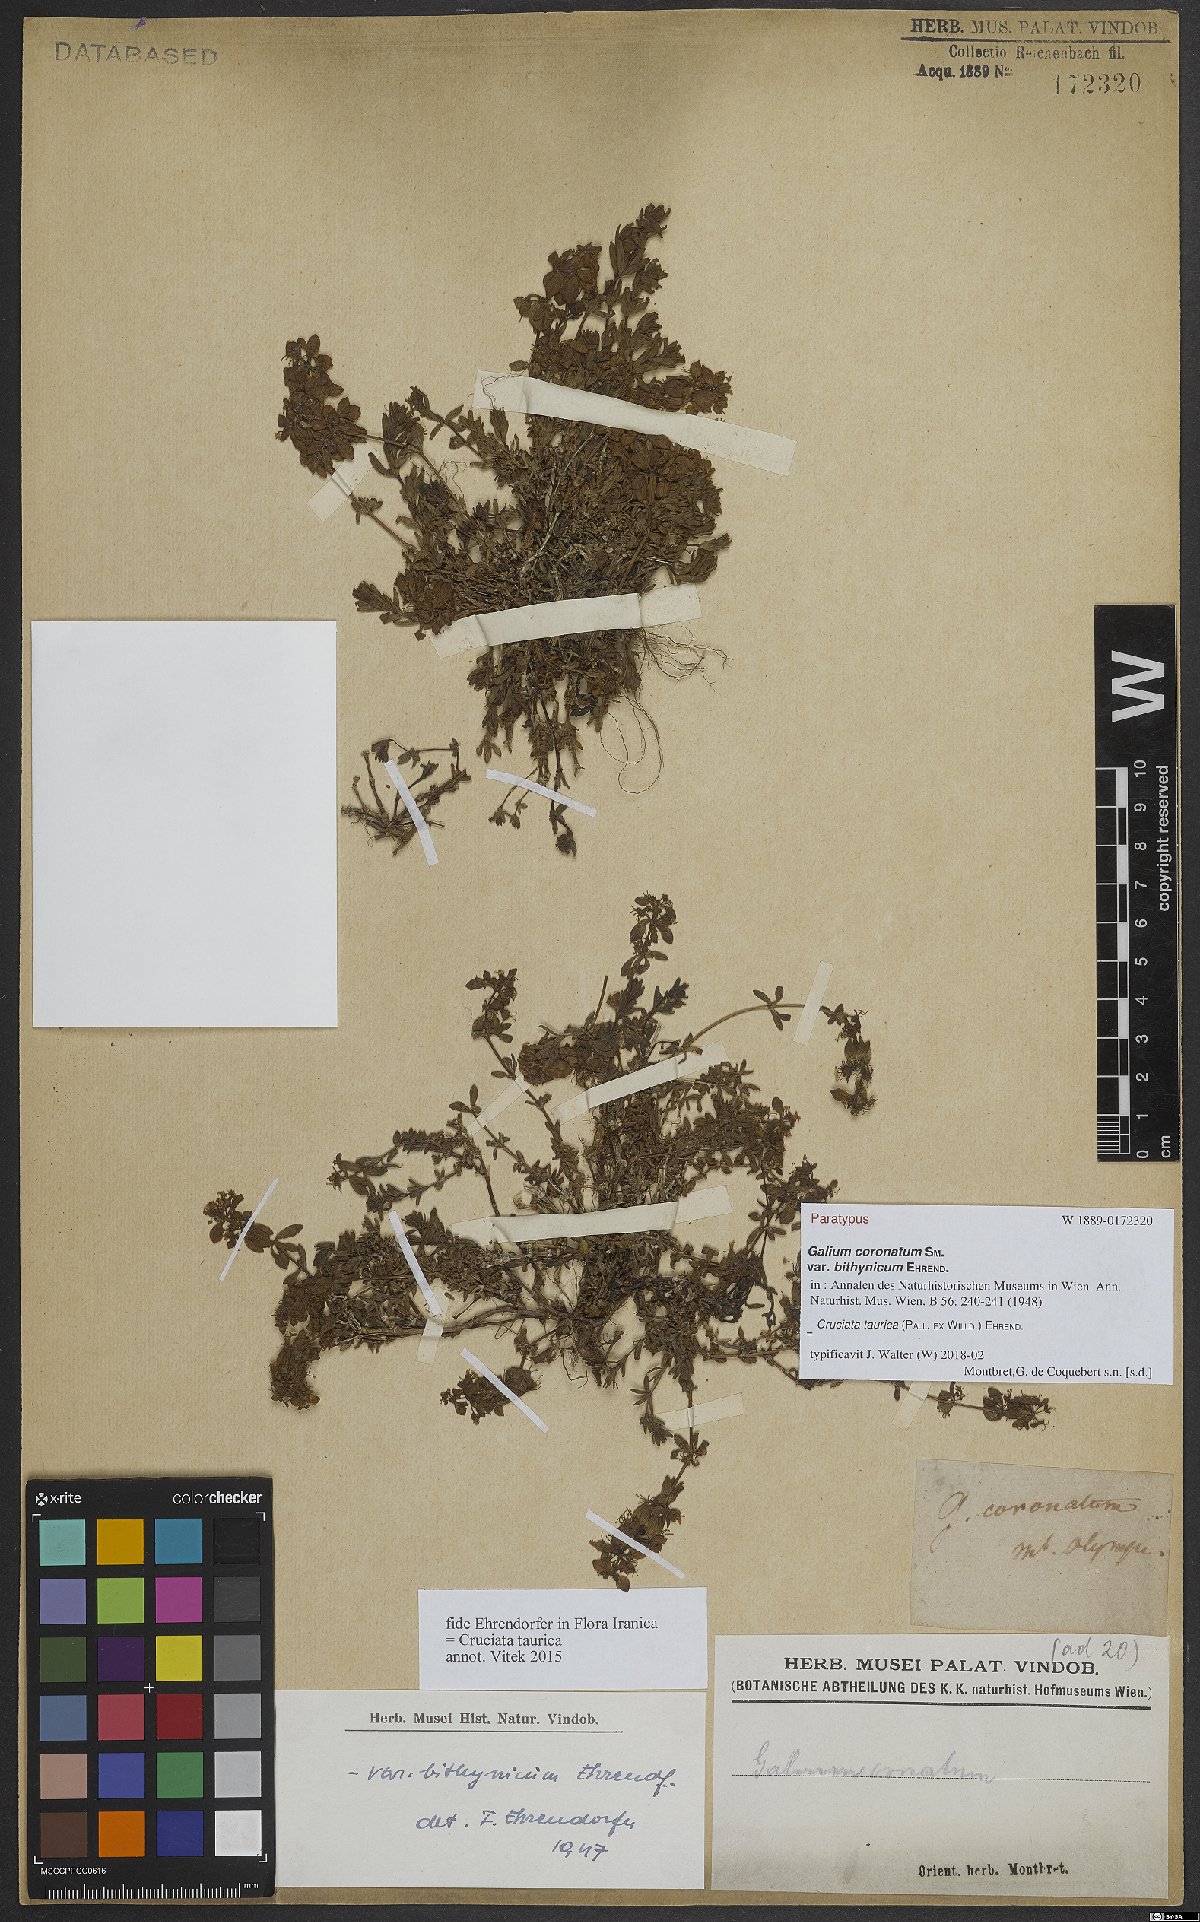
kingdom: Plantae
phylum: Tracheophyta
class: Magnoliopsida
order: Gentianales
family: Rubiaceae
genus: Cruciata
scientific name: Cruciata taurica
